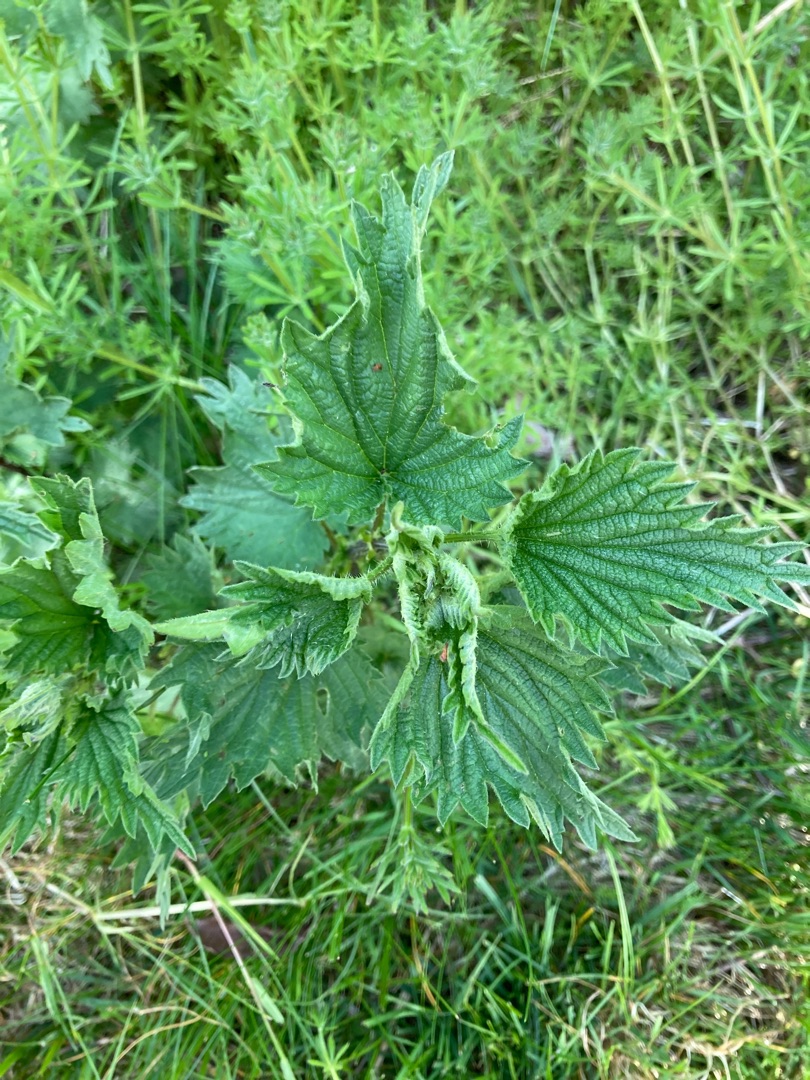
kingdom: Plantae
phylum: Tracheophyta
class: Magnoliopsida
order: Rosales
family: Urticaceae
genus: Urtica
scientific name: Urtica dioica
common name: Stor nælde
